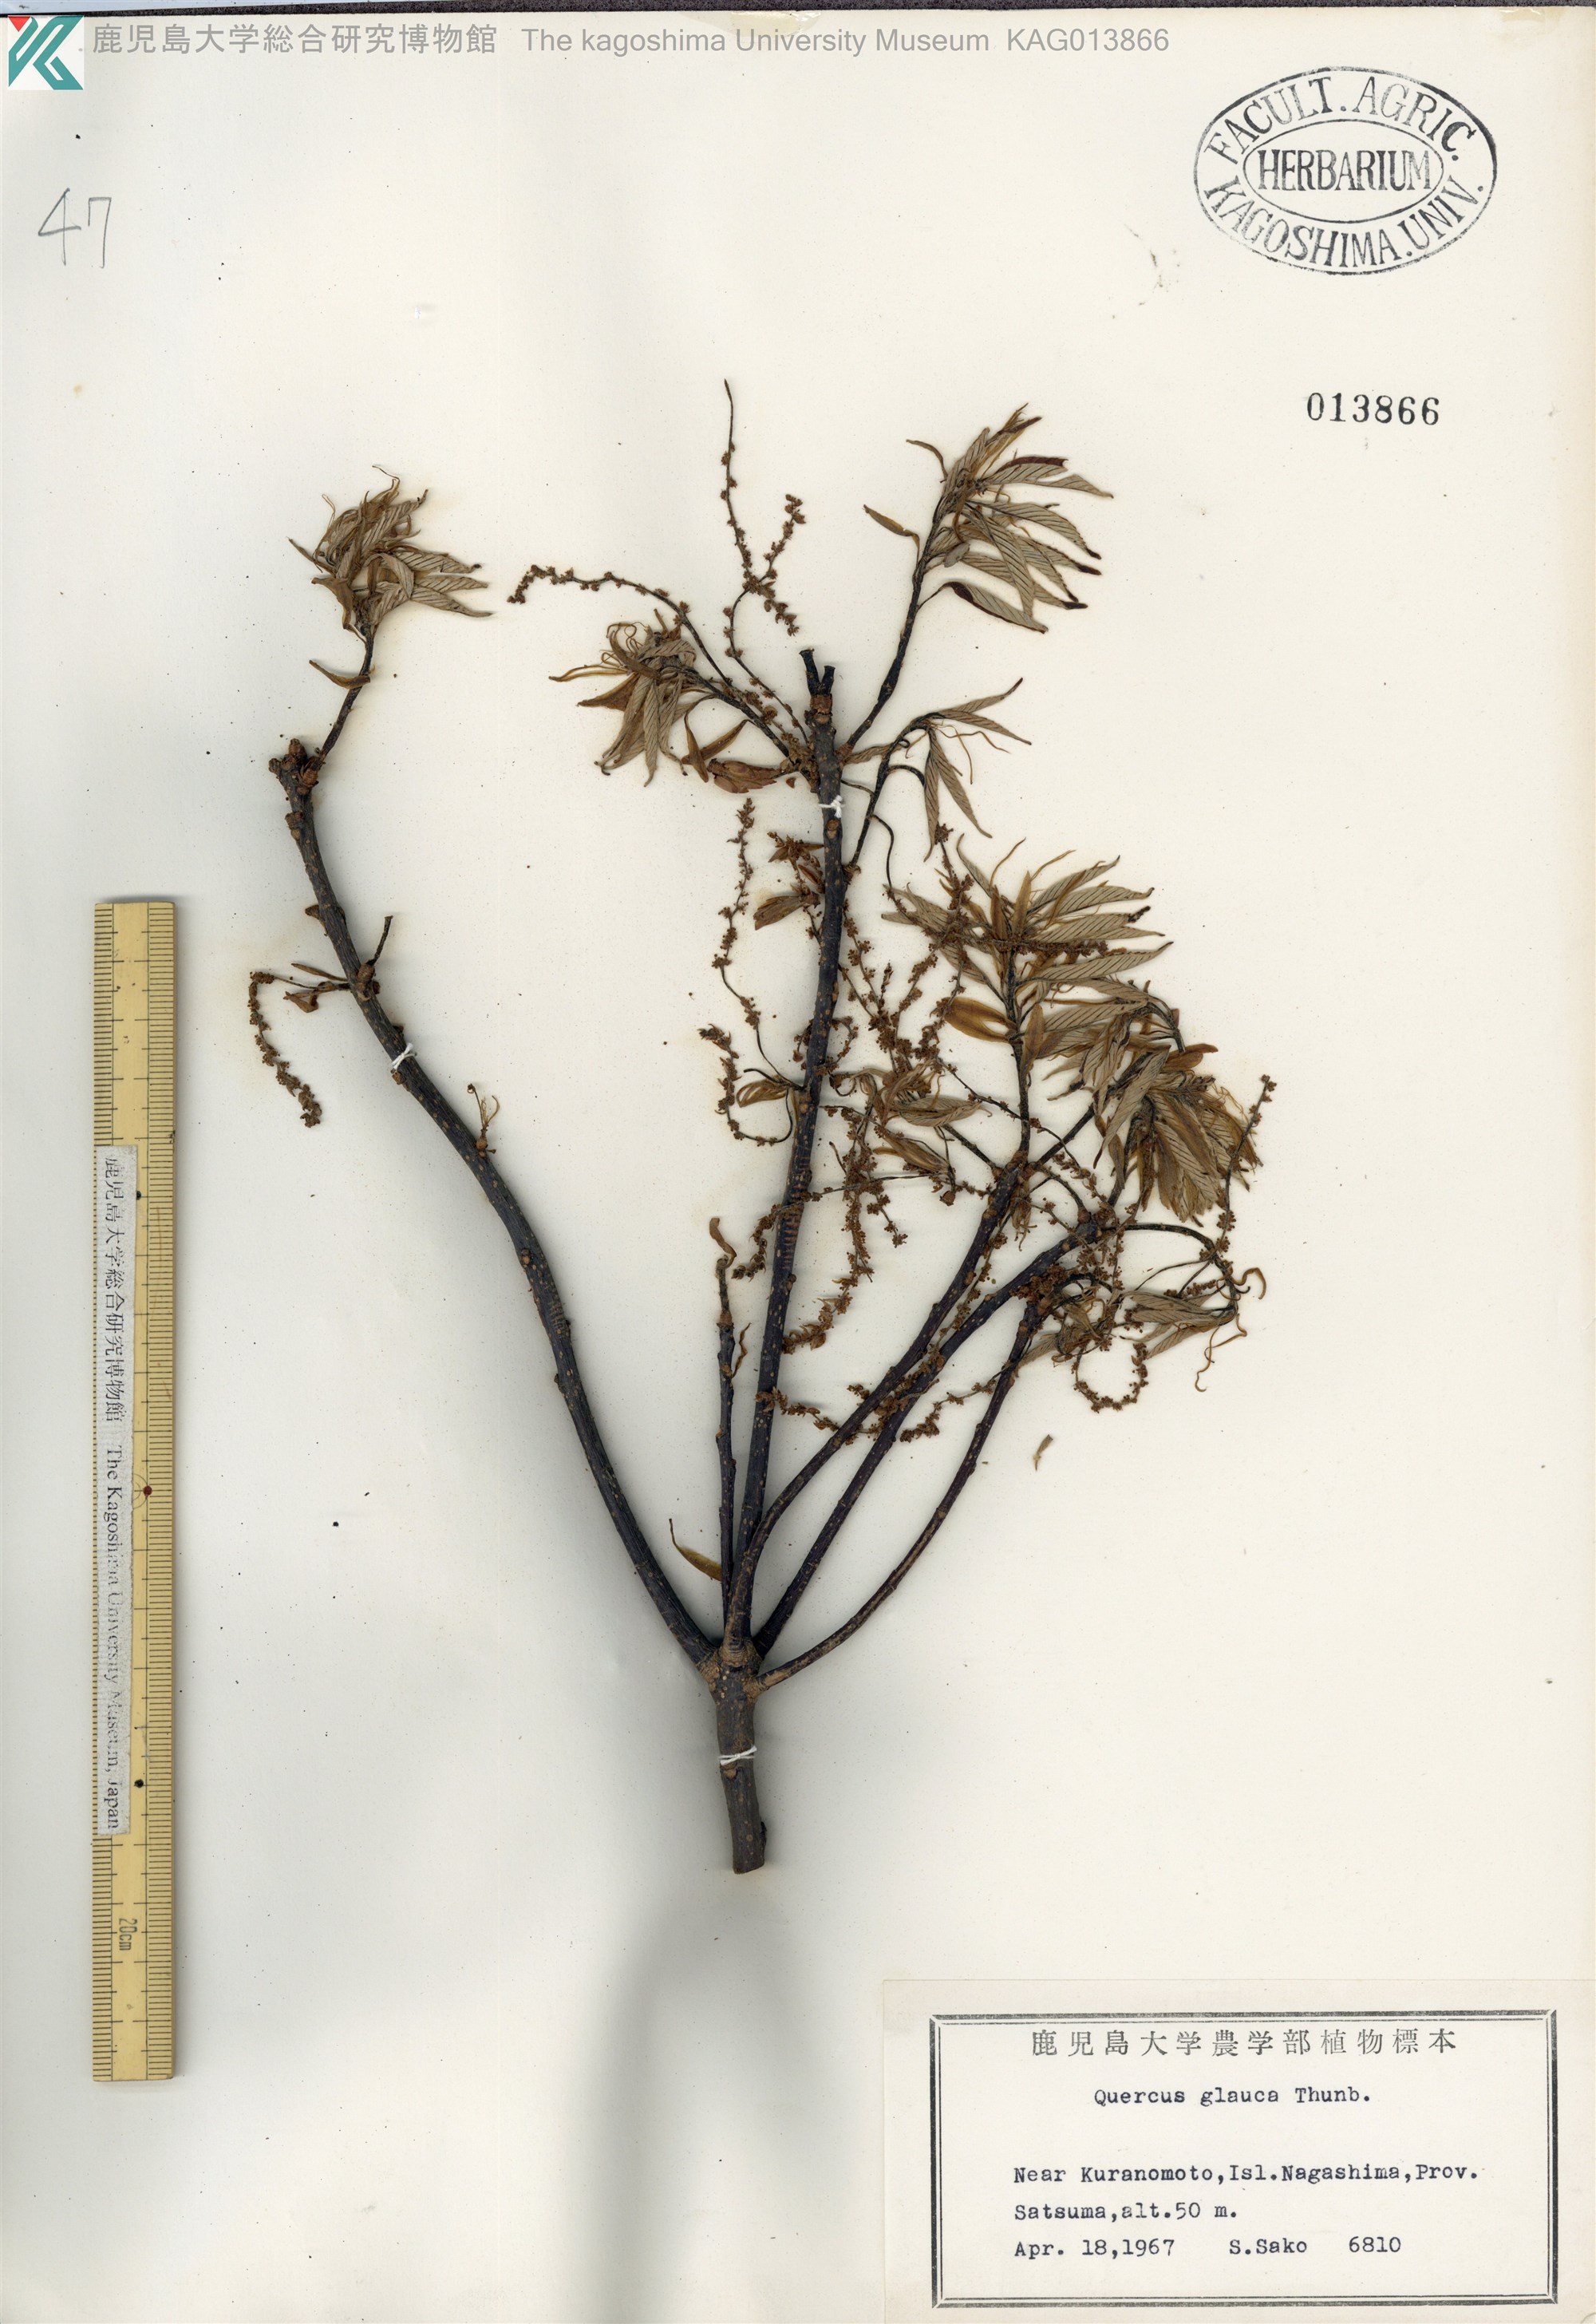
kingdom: Plantae
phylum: Tracheophyta
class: Magnoliopsida
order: Fagales
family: Fagaceae
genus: Quercus
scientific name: Quercus glauca
